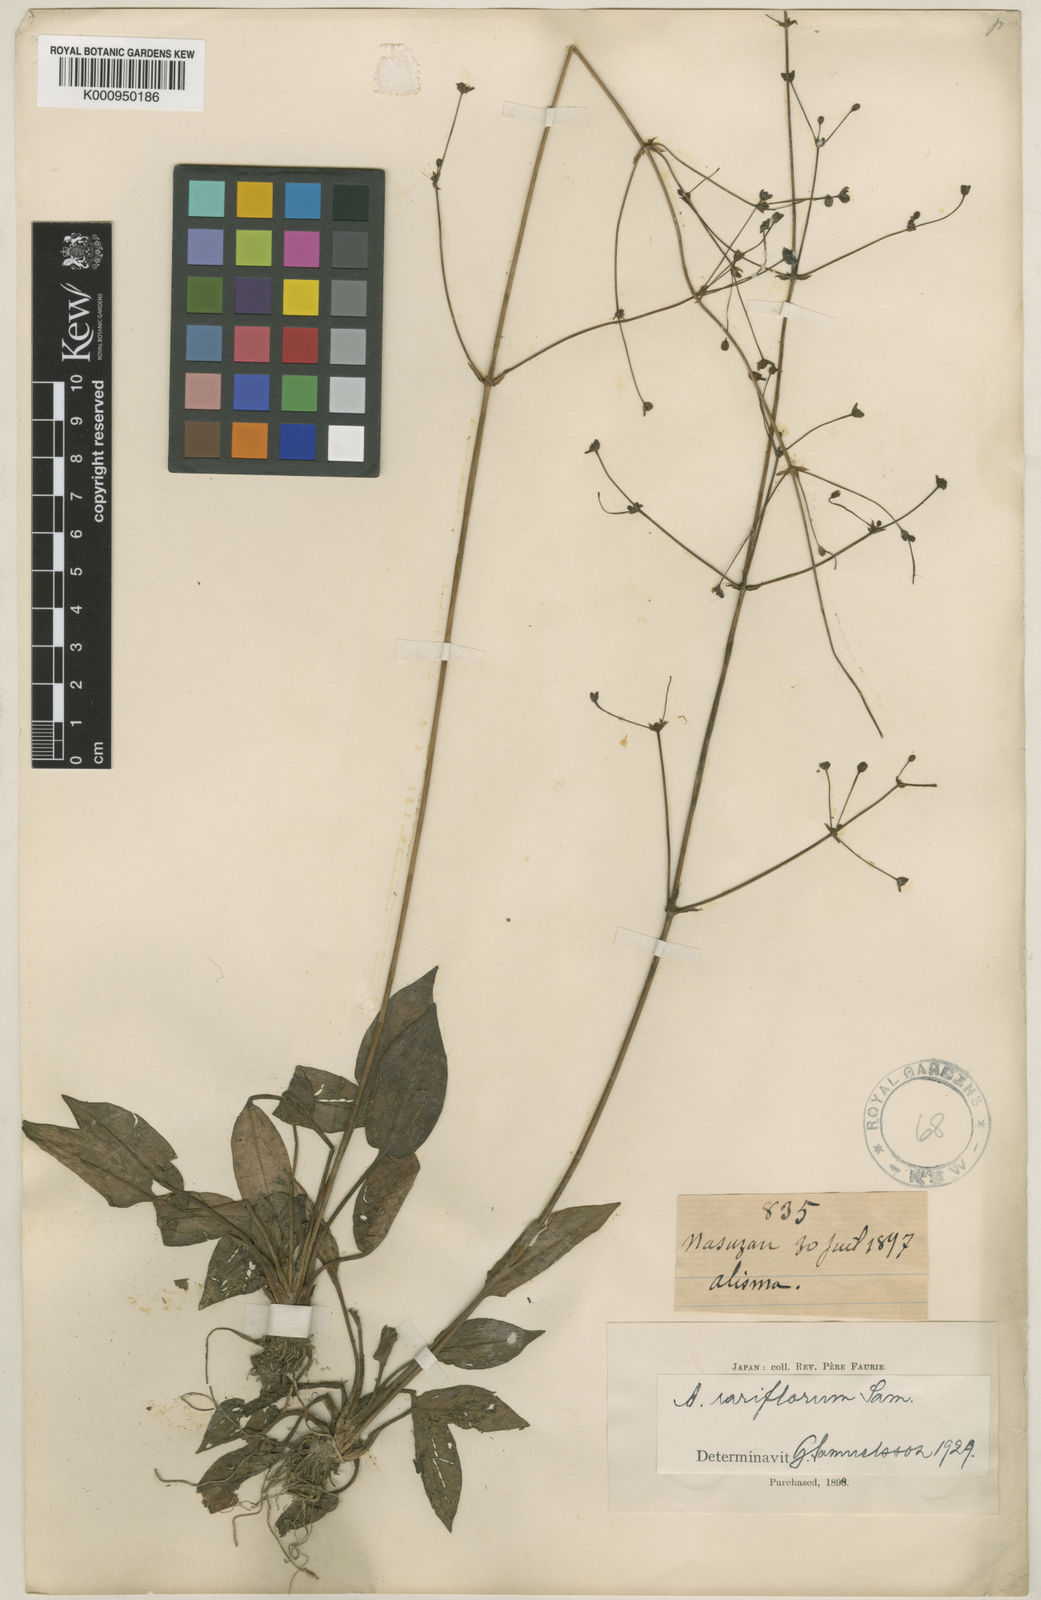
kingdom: Plantae
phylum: Tracheophyta
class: Liliopsida
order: Alismatales
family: Alismataceae
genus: Alisma
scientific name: Alisma rariflorum
